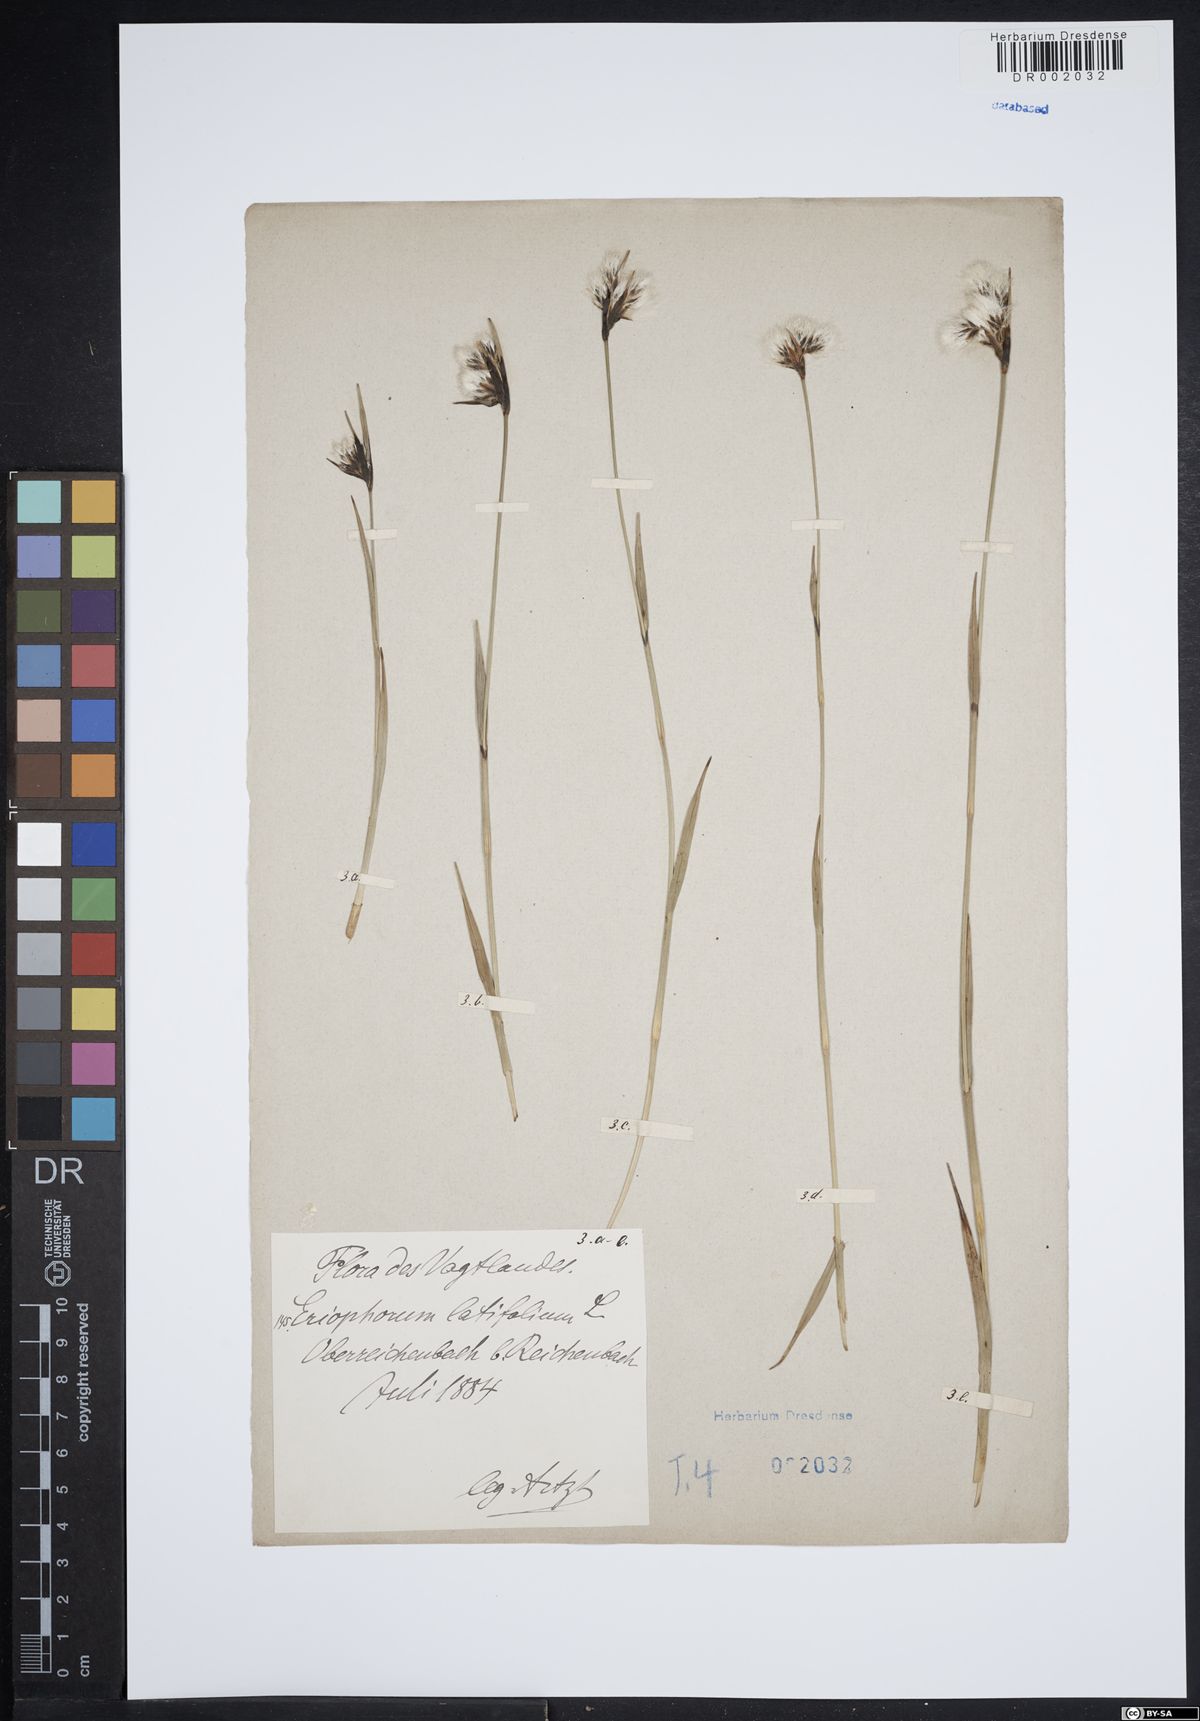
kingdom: Plantae
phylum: Tracheophyta
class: Liliopsida
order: Poales
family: Cyperaceae
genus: Eriophorum
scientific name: Eriophorum latifolium
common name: Broad-leaved cottongrass
